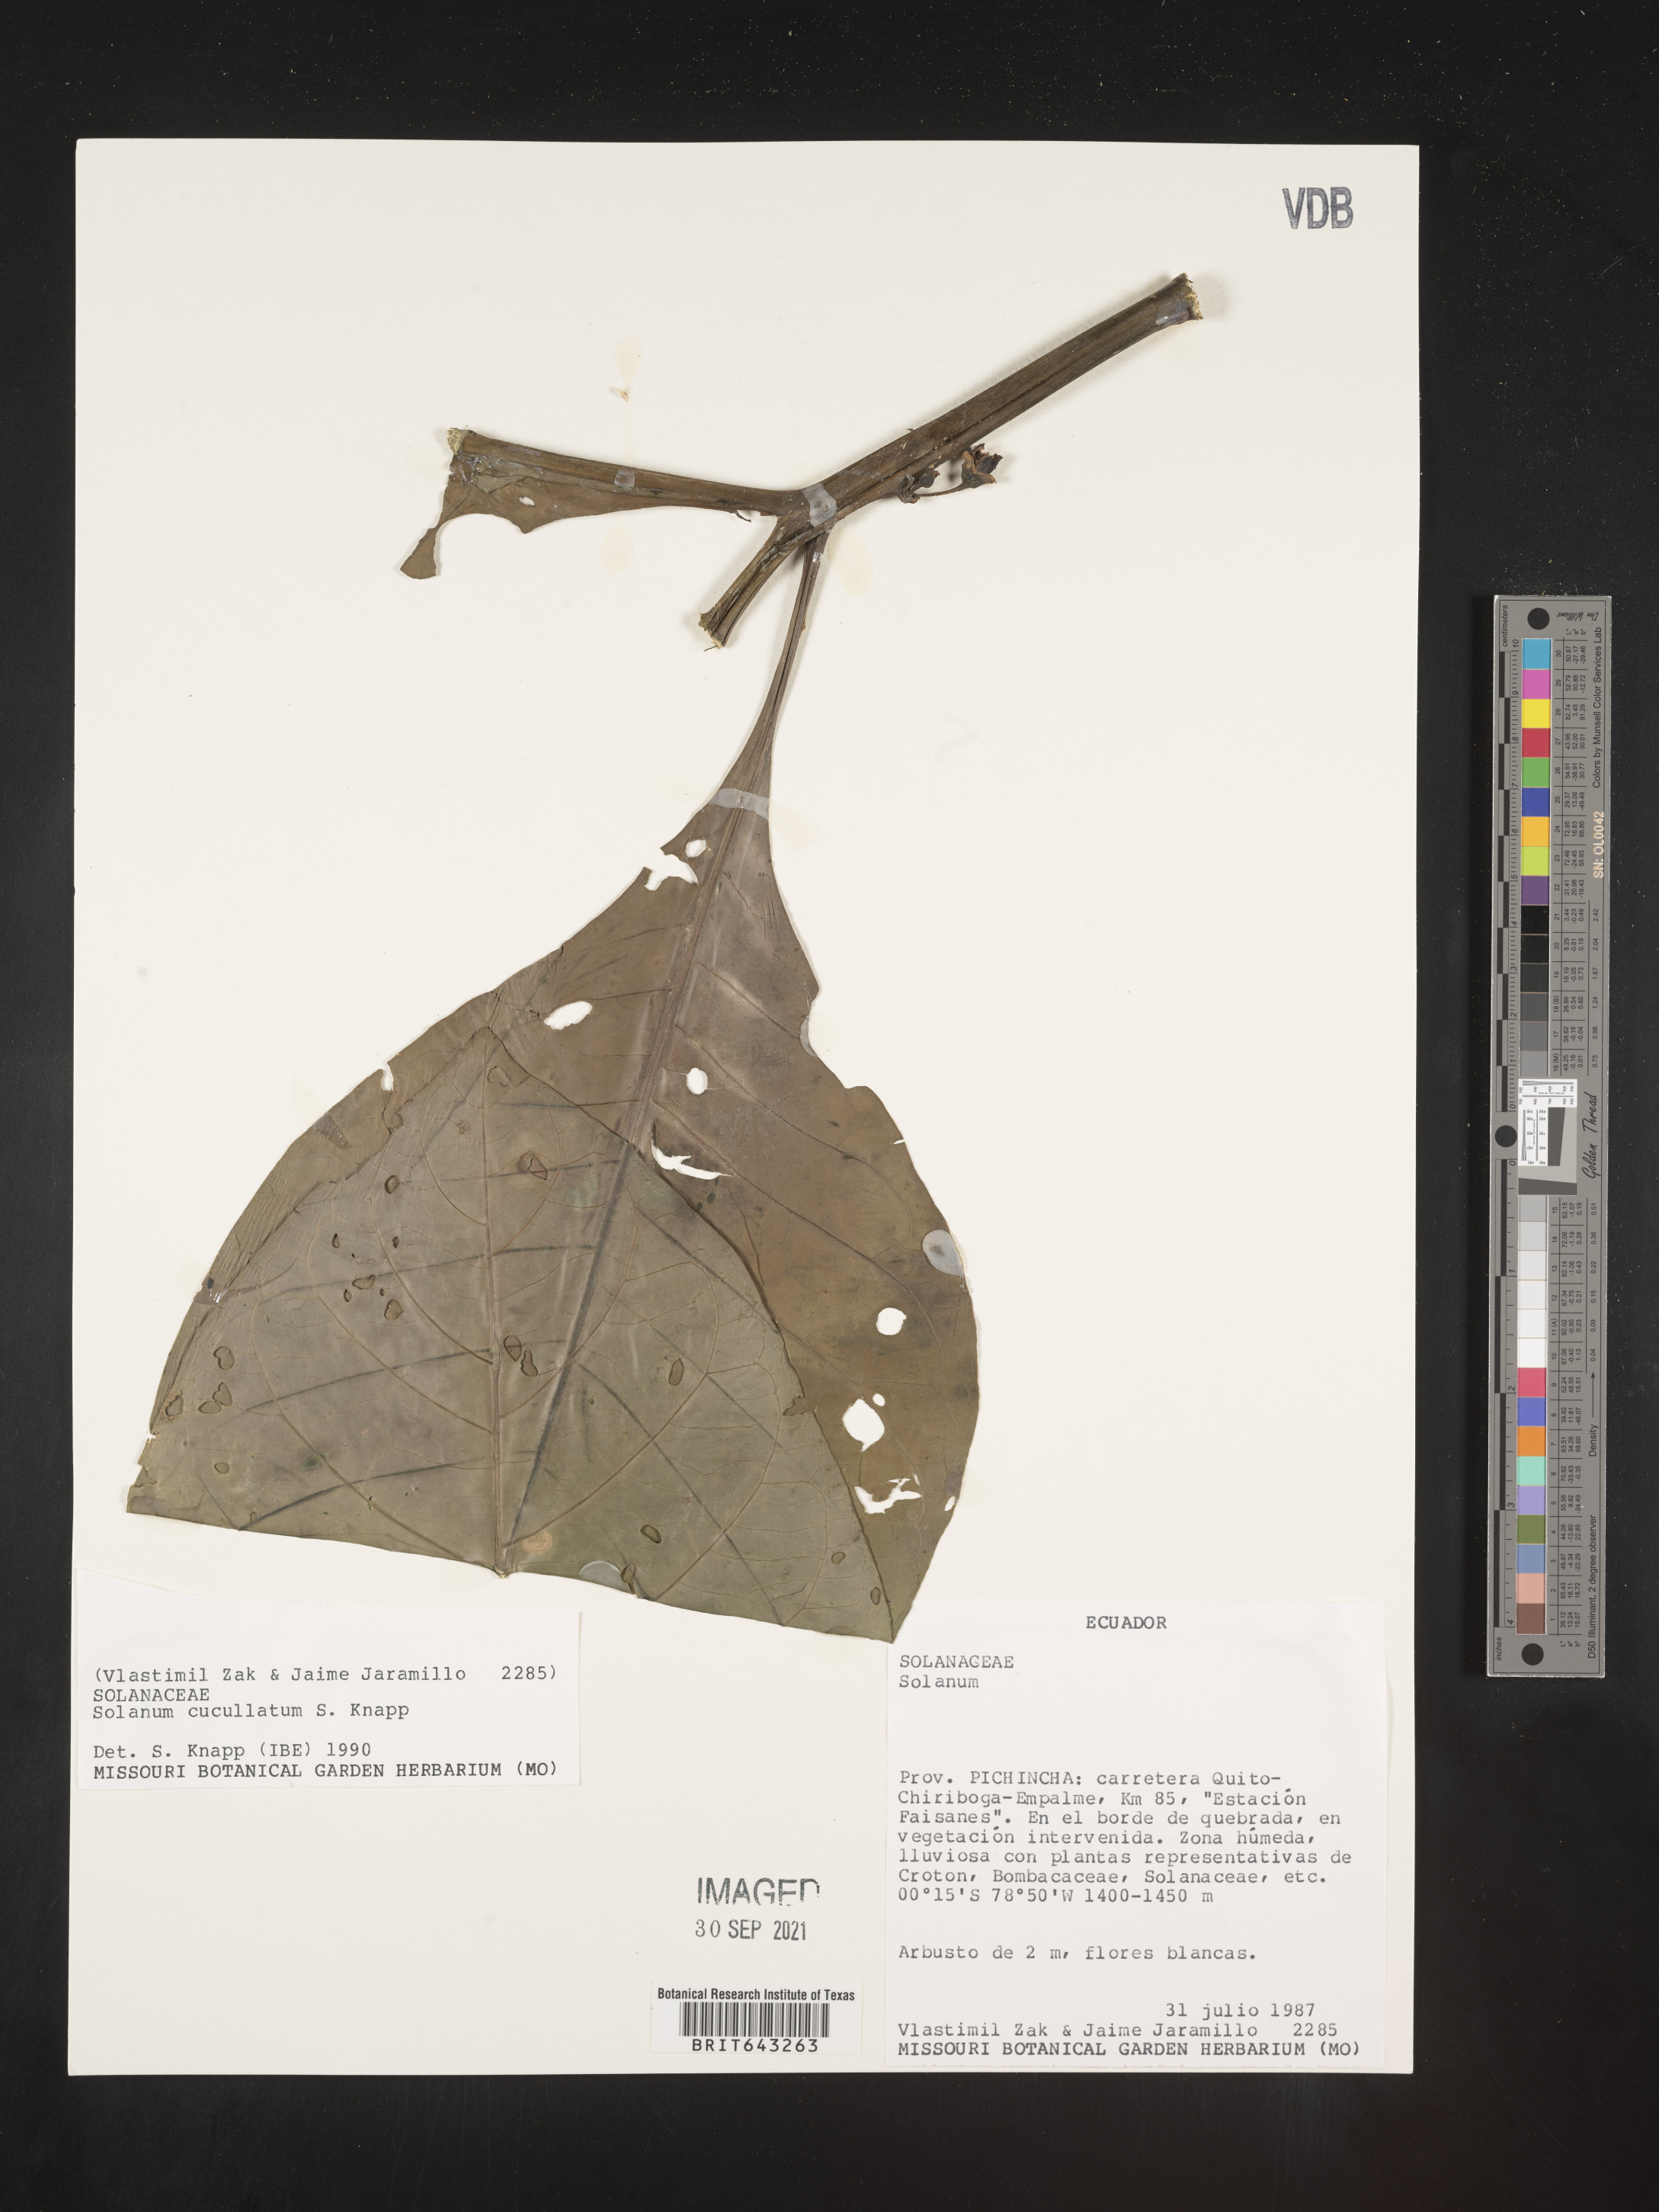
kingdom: Plantae
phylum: Tracheophyta
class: Magnoliopsida
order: Solanales
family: Solanaceae
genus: Solanum
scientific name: Solanum
